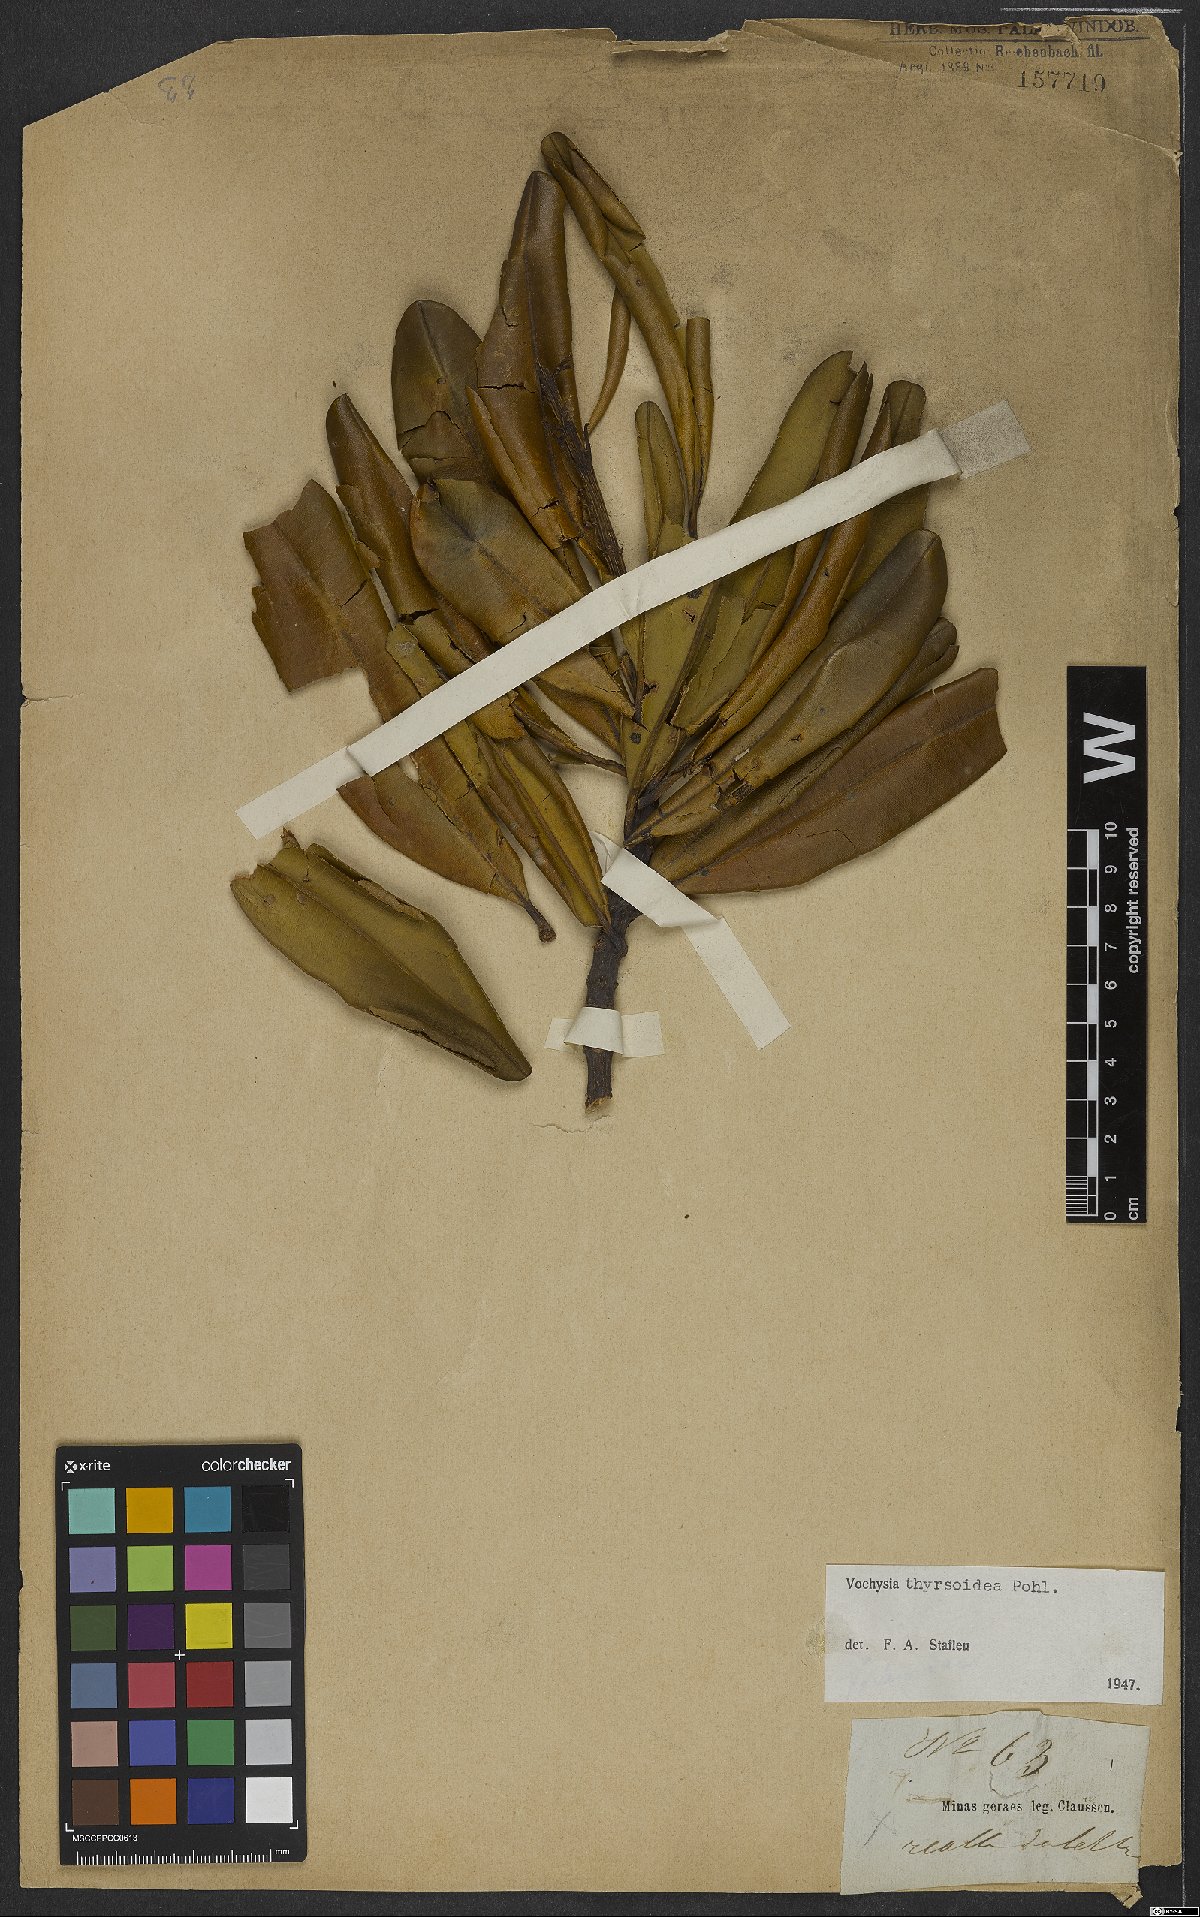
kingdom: Plantae
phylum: Tracheophyta
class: Magnoliopsida
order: Myrtales
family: Vochysiaceae
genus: Vochysia
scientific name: Vochysia thyrsoidea
